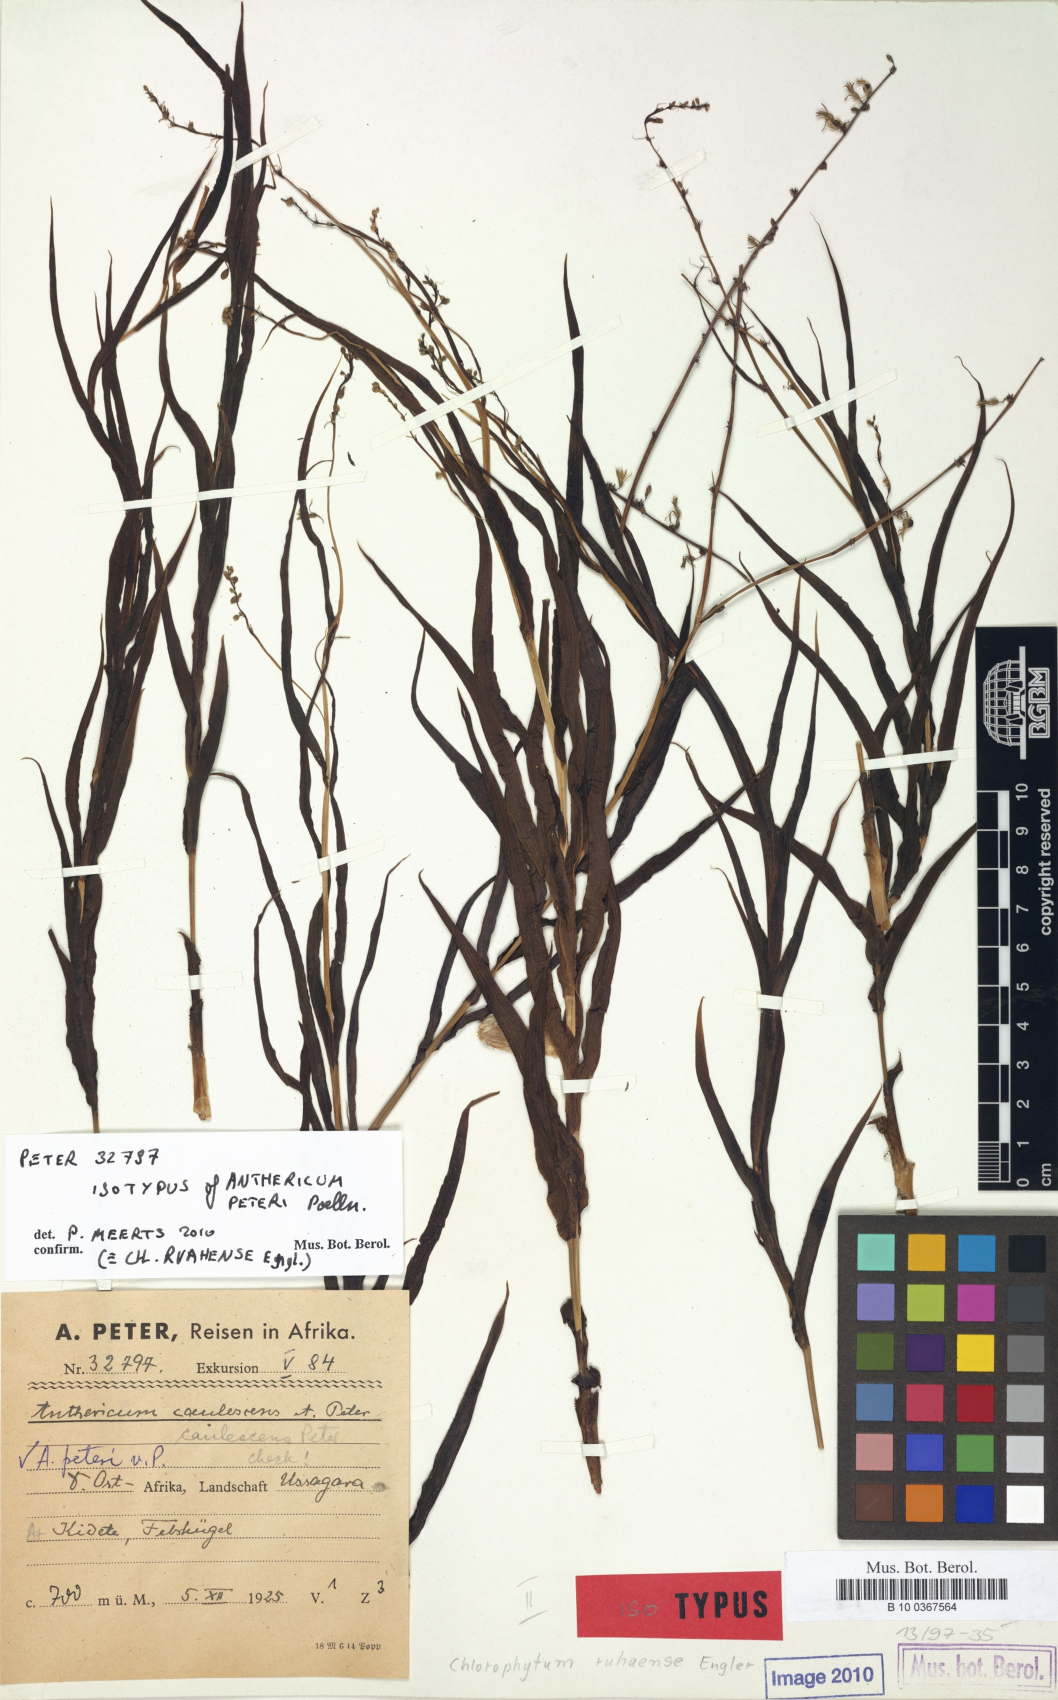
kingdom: Plantae
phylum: Tracheophyta
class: Liliopsida
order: Asparagales
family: Asparagaceae
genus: Chlorophytum
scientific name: Chlorophytum ruahense
